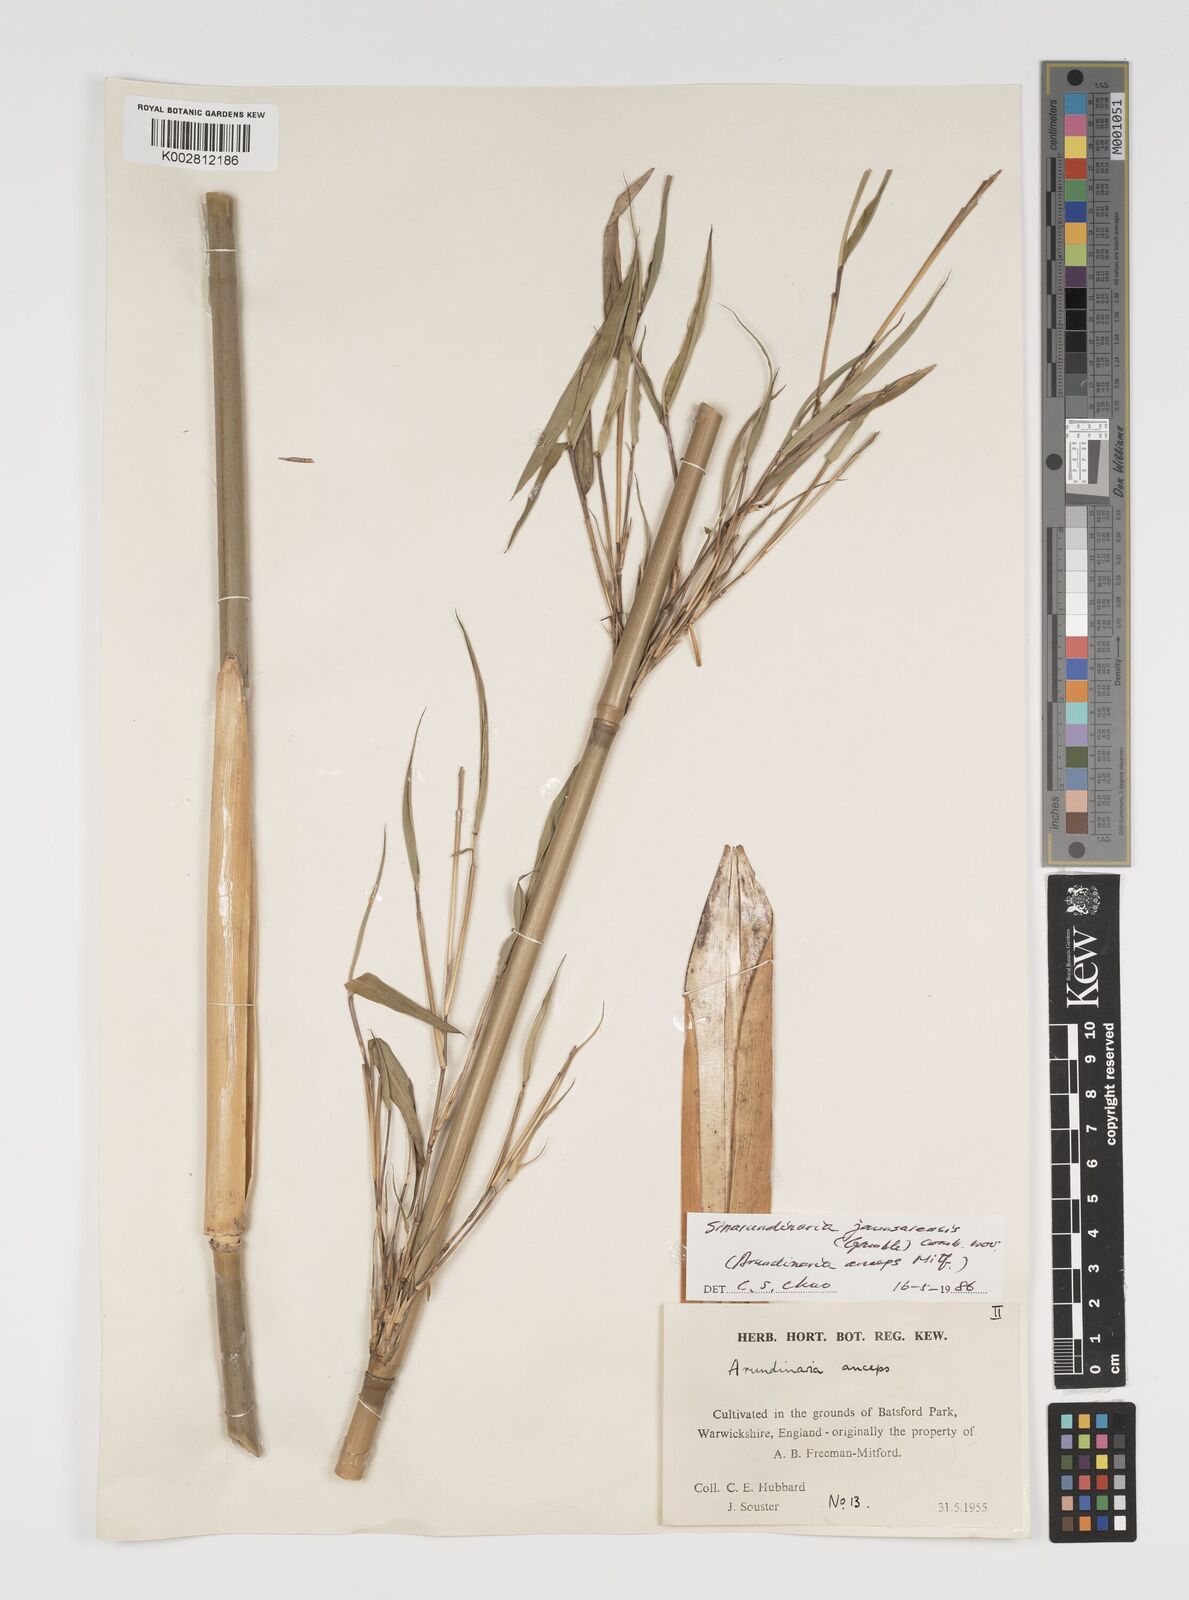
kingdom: Plantae
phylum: Tracheophyta
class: Liliopsida
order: Poales
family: Poaceae
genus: Yushania
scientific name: Yushania anceps
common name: Indian fountain-bamboo
